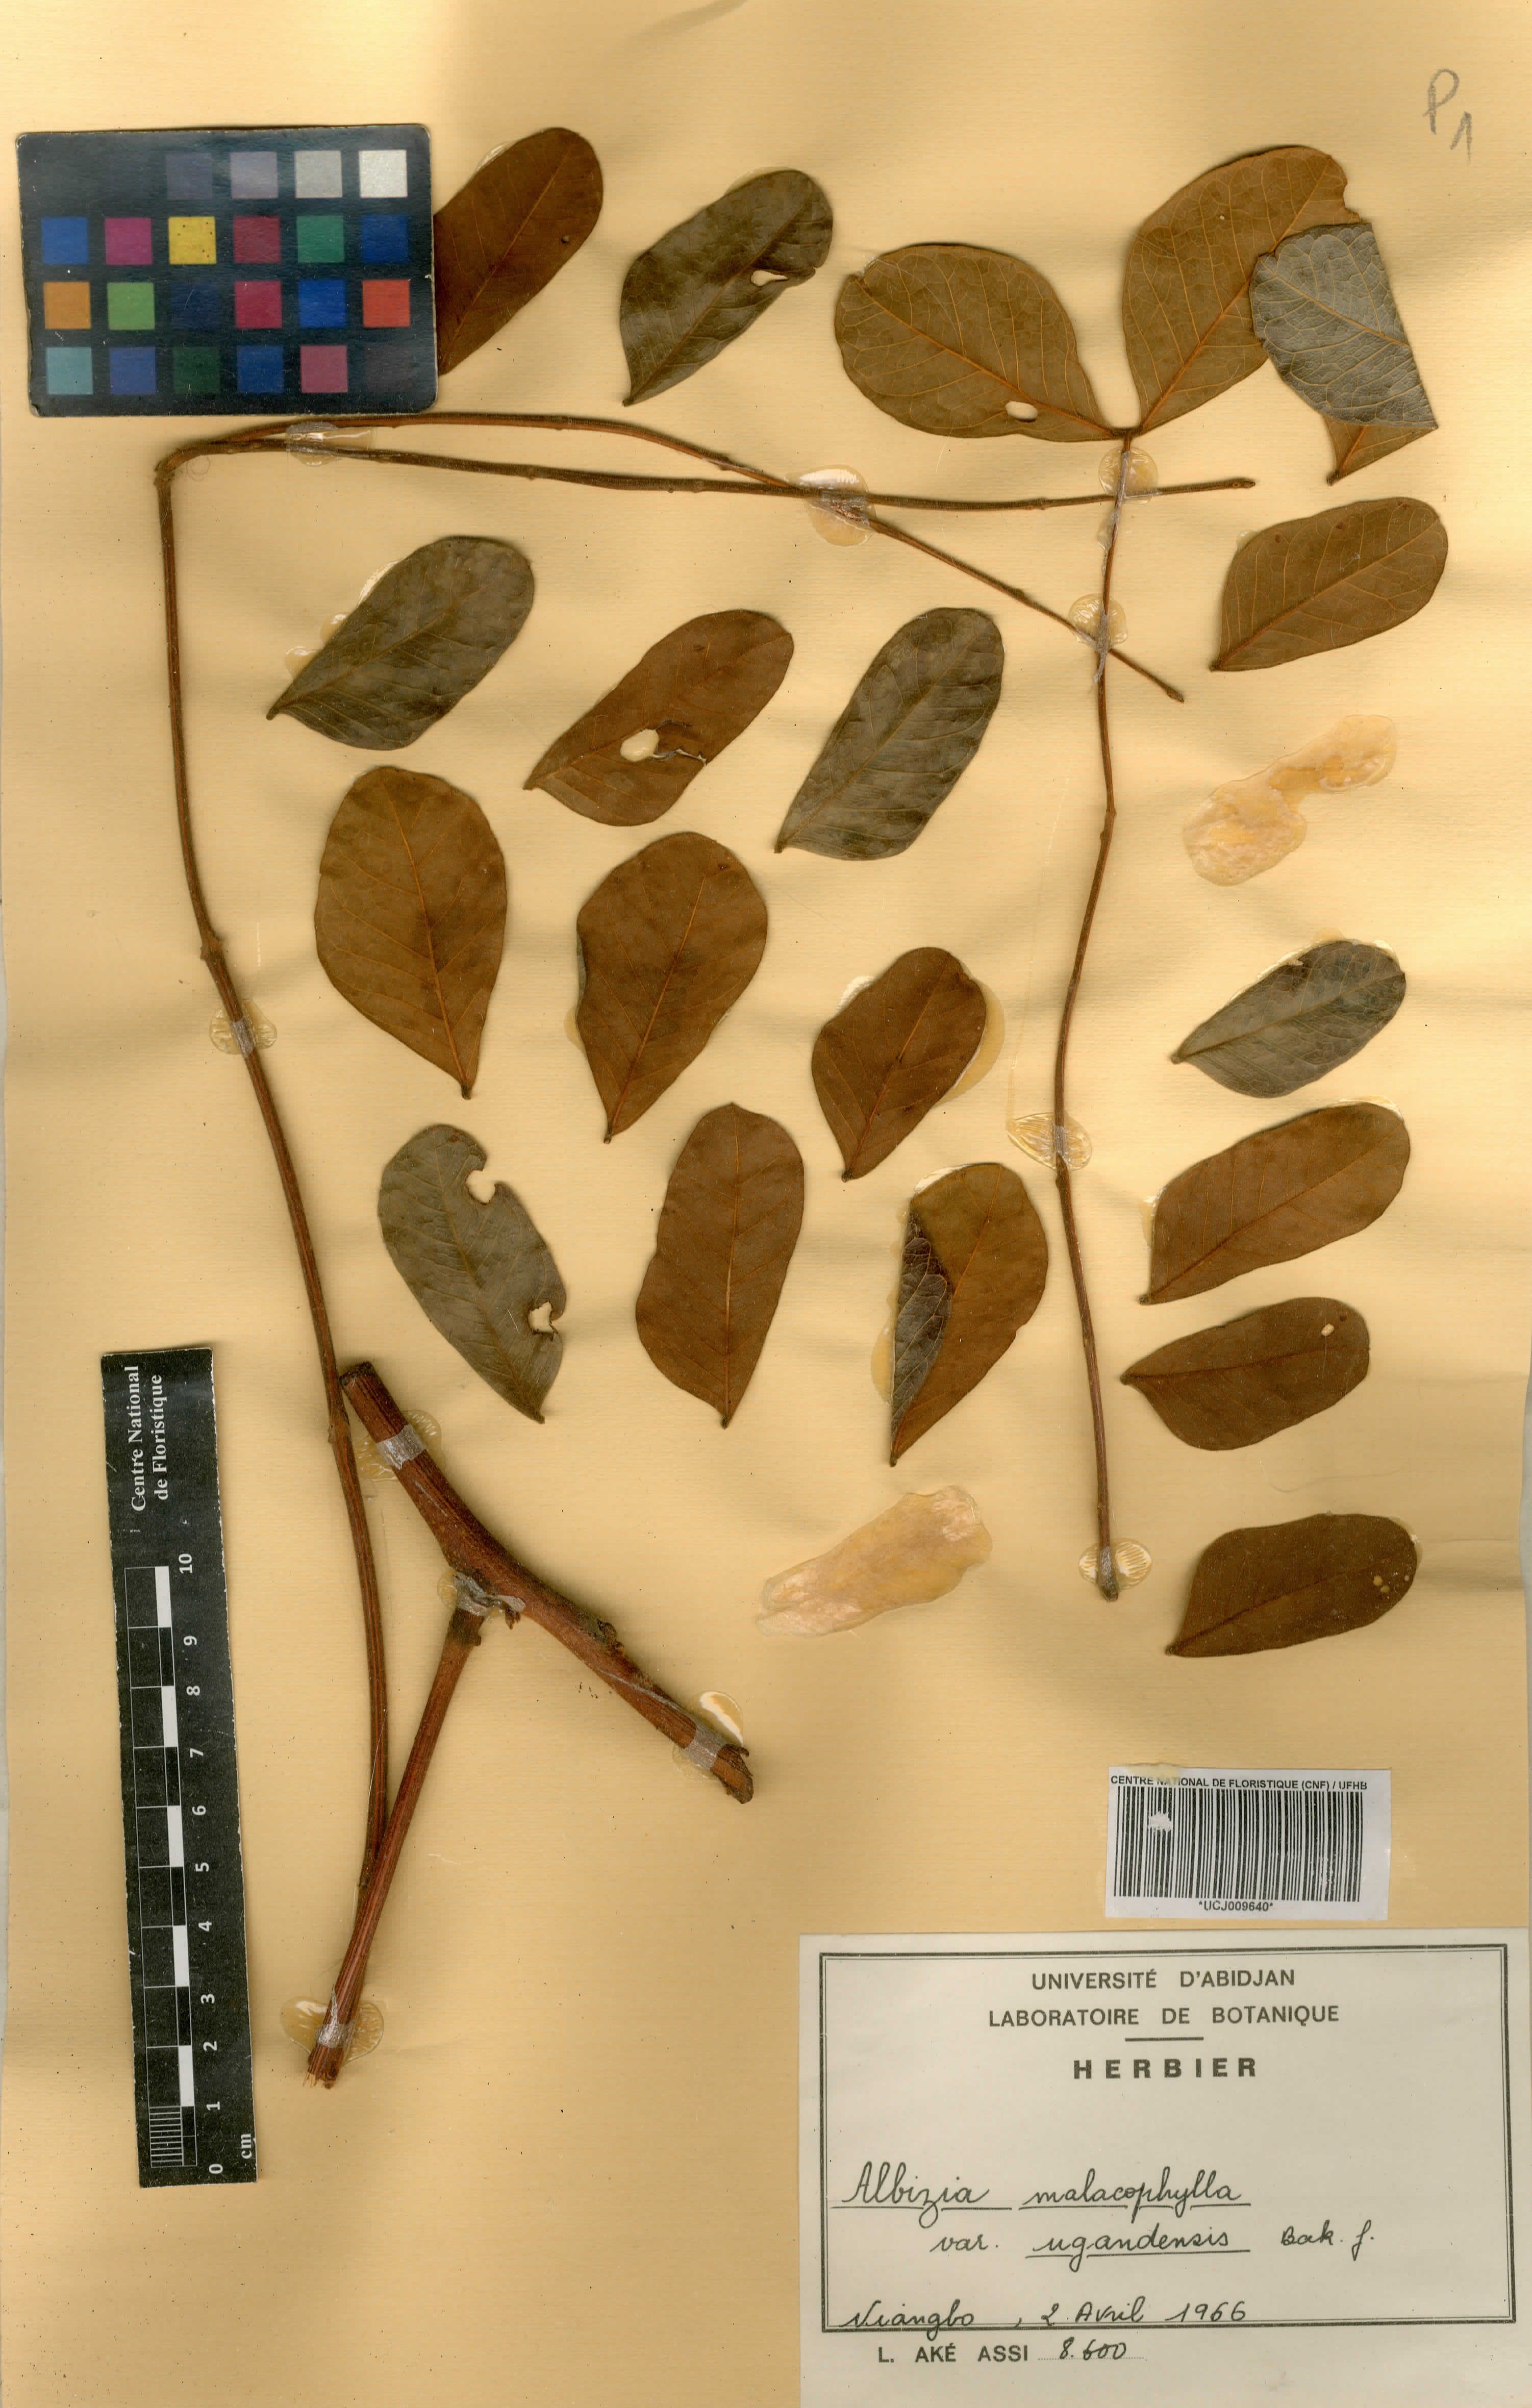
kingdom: Plantae
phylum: Tracheophyta
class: Magnoliopsida
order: Fabales
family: Fabaceae
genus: Albizia
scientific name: Albizia malacophylla
